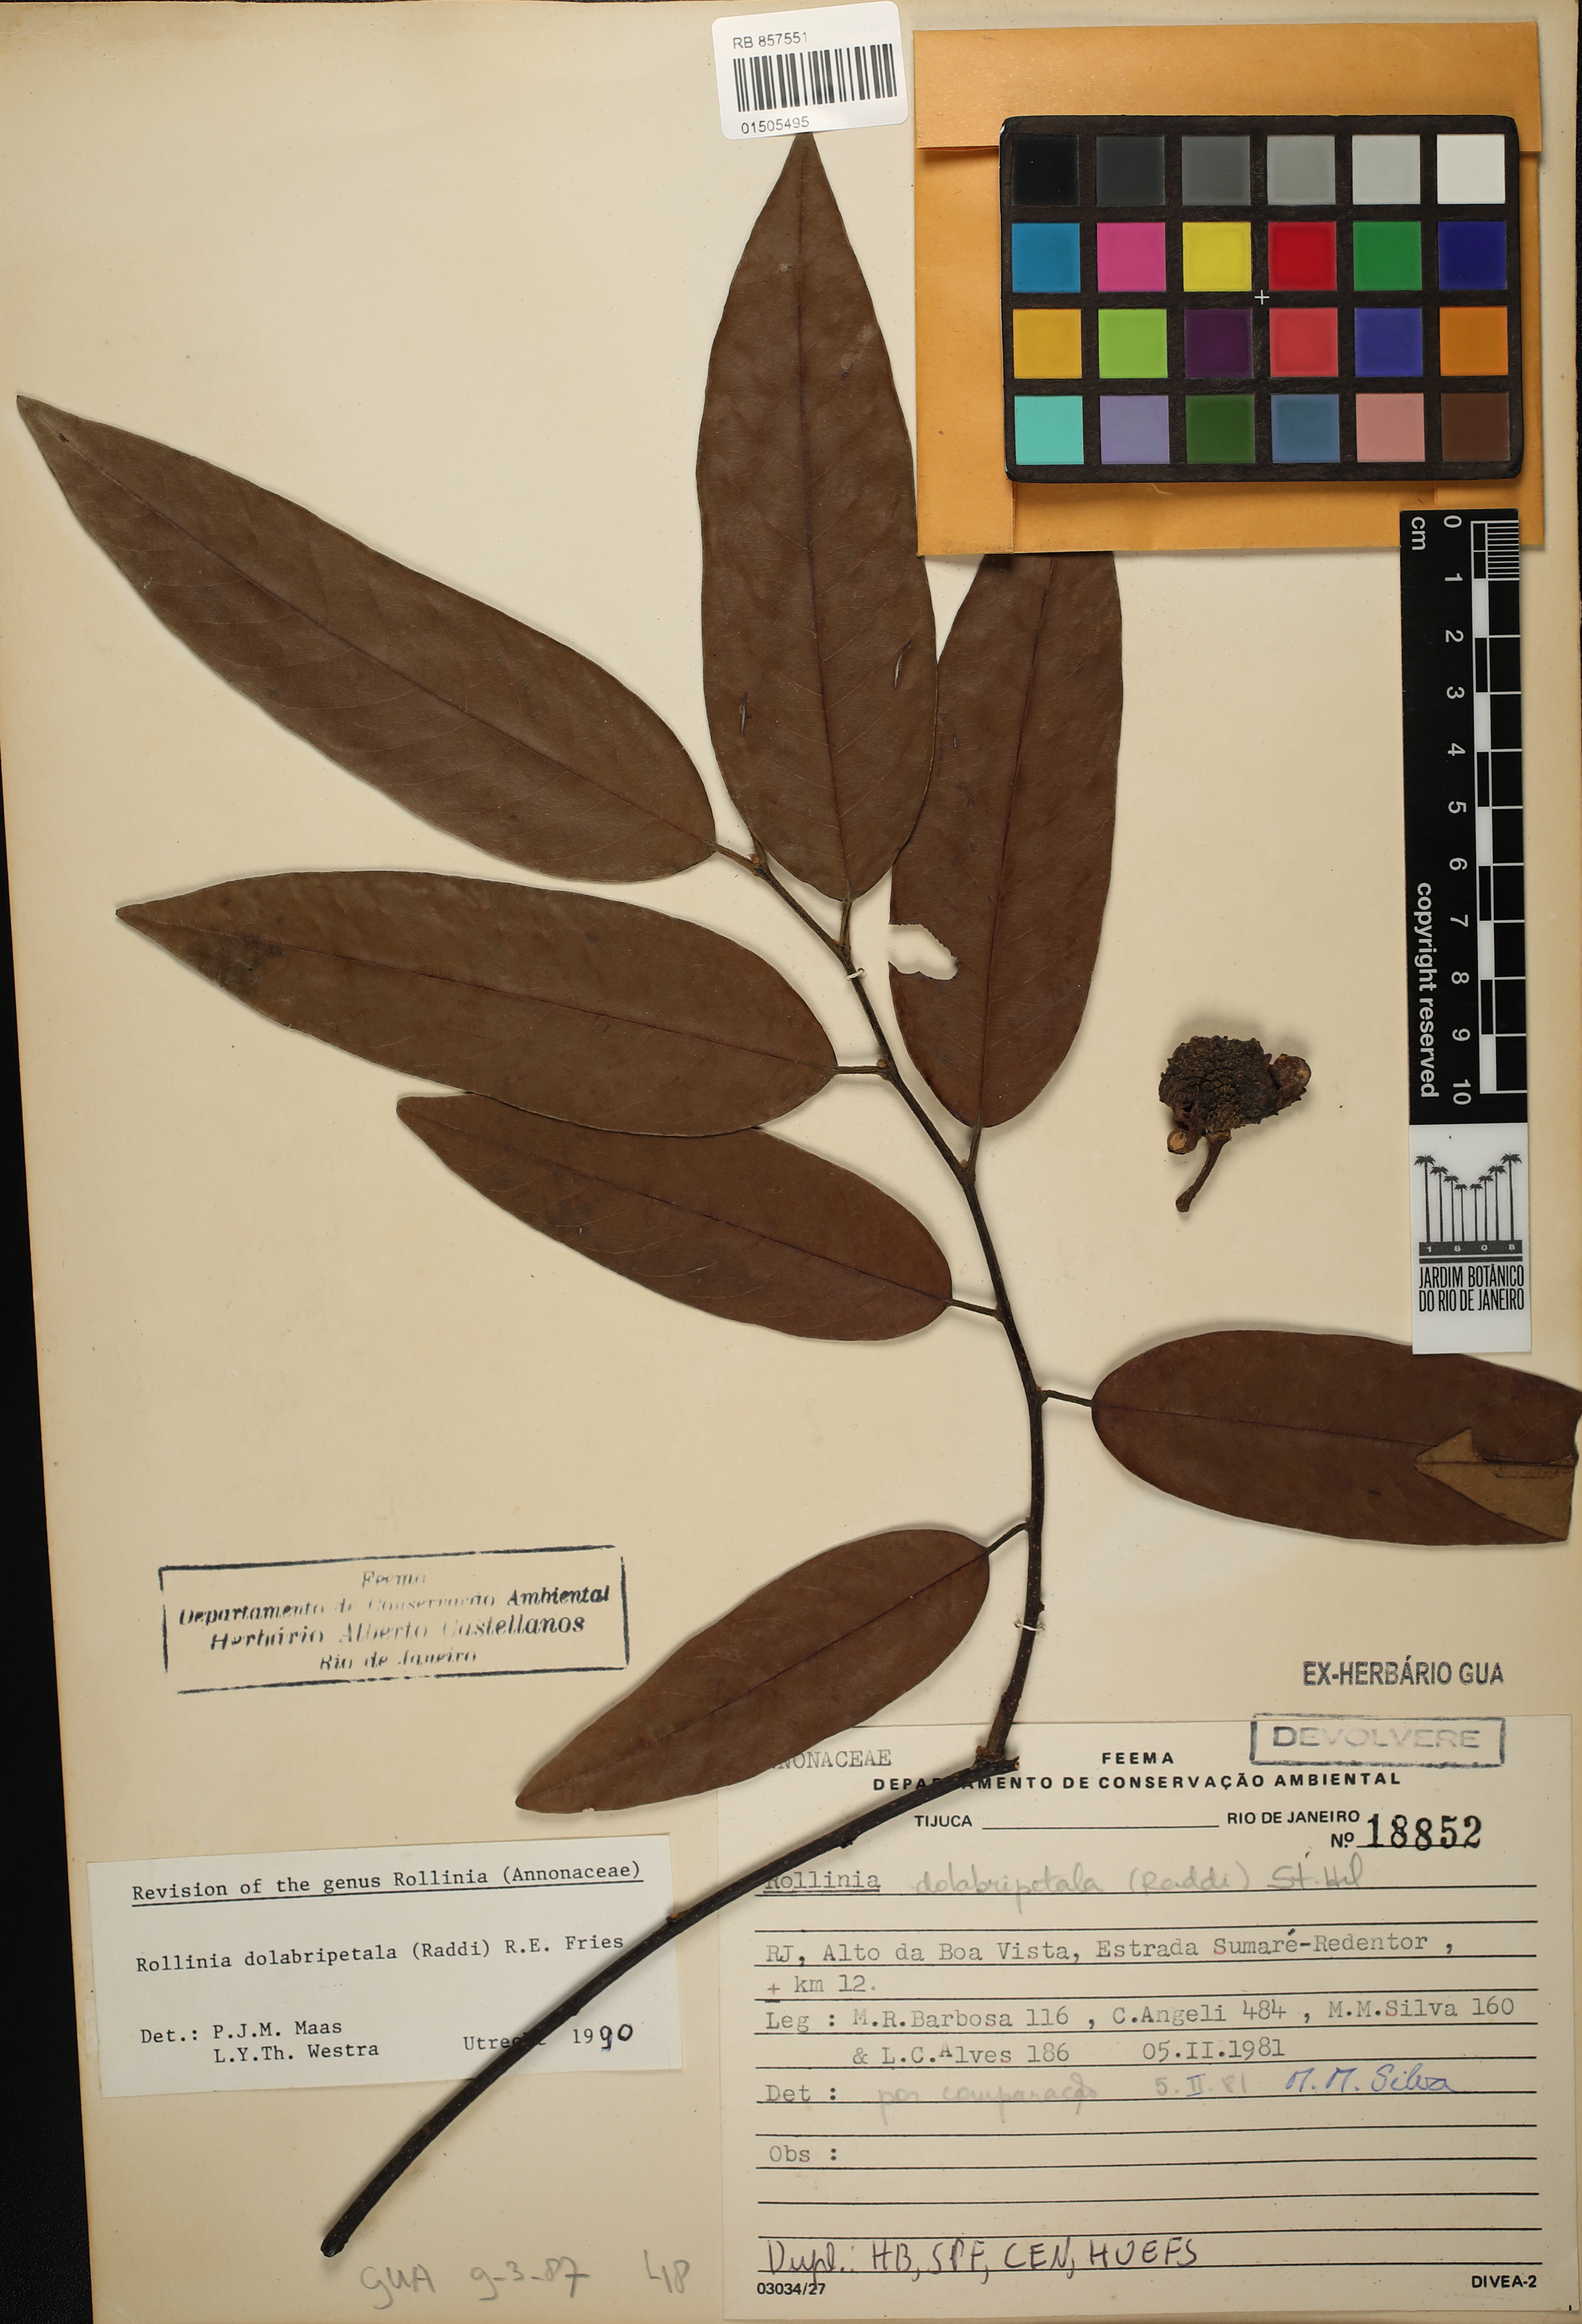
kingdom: Plantae
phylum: Tracheophyta
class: Magnoliopsida
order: Magnoliales
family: Annonaceae
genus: Annona
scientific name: Annona dolabripetala
